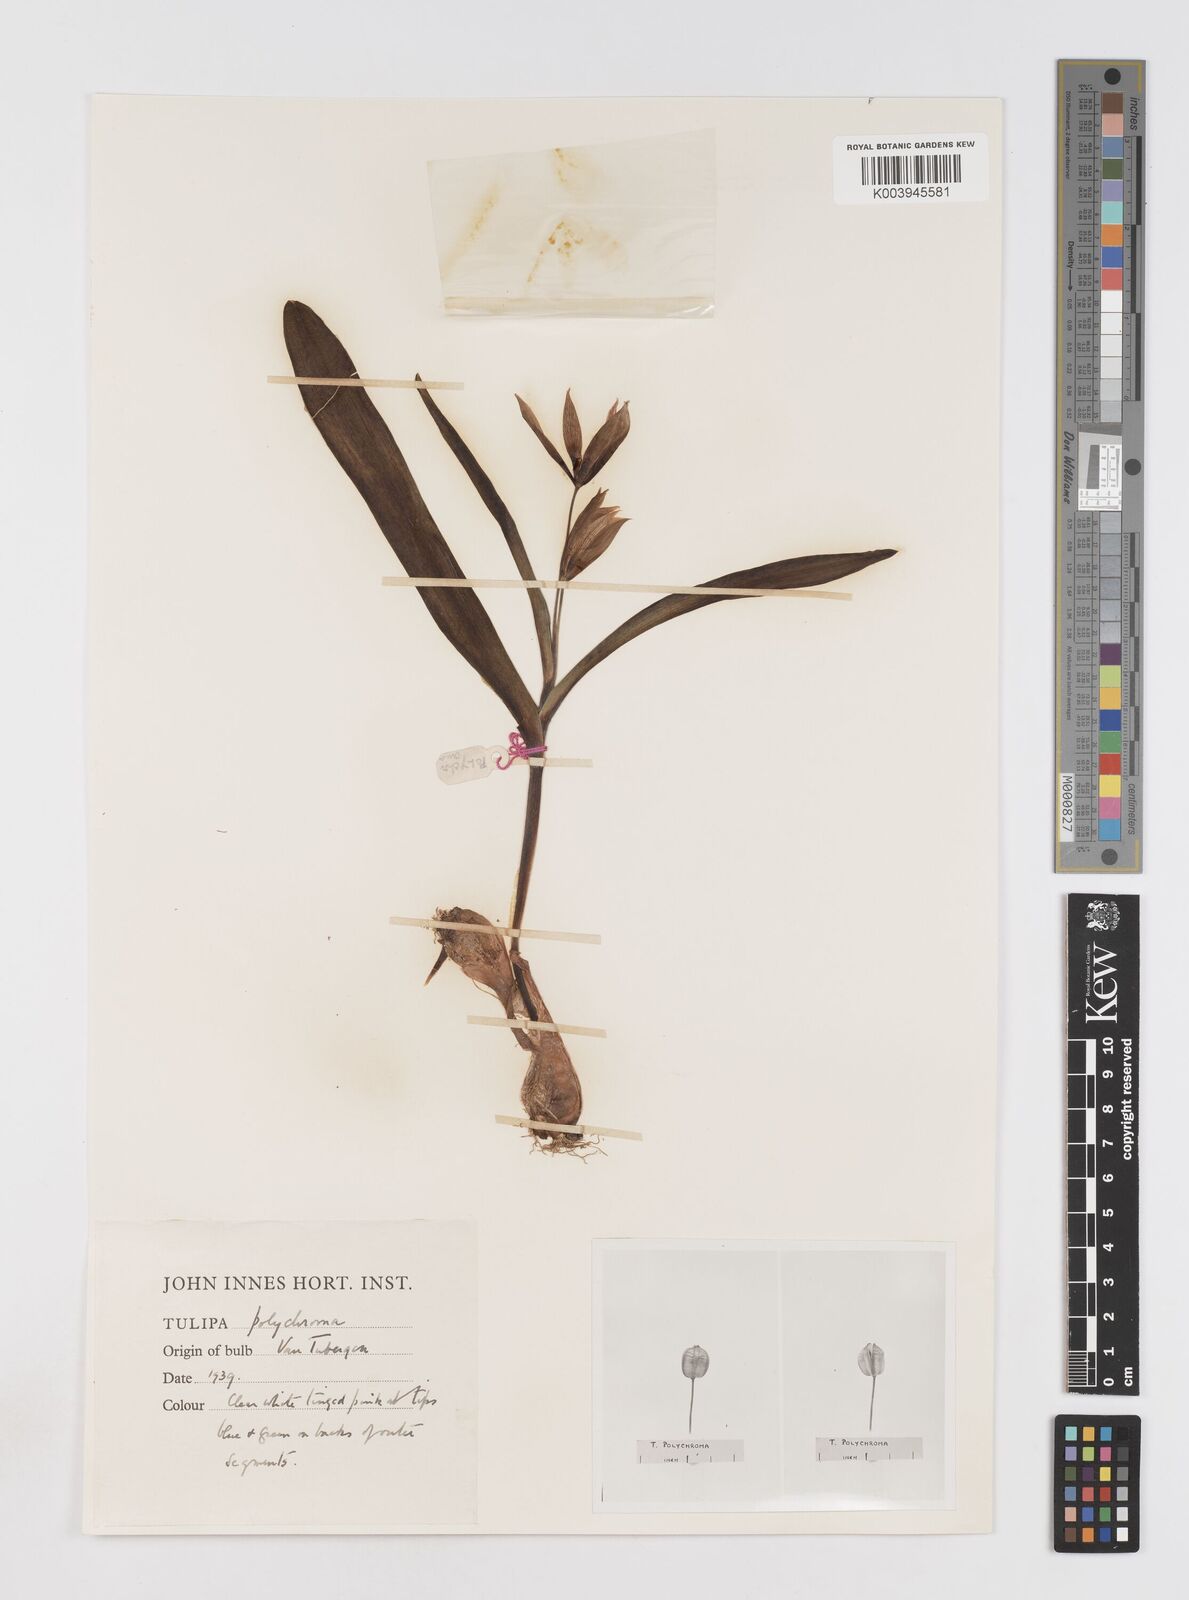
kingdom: Plantae
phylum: Tracheophyta
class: Liliopsida
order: Liliales
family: Liliaceae
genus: Tulipa
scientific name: Tulipa biflora
